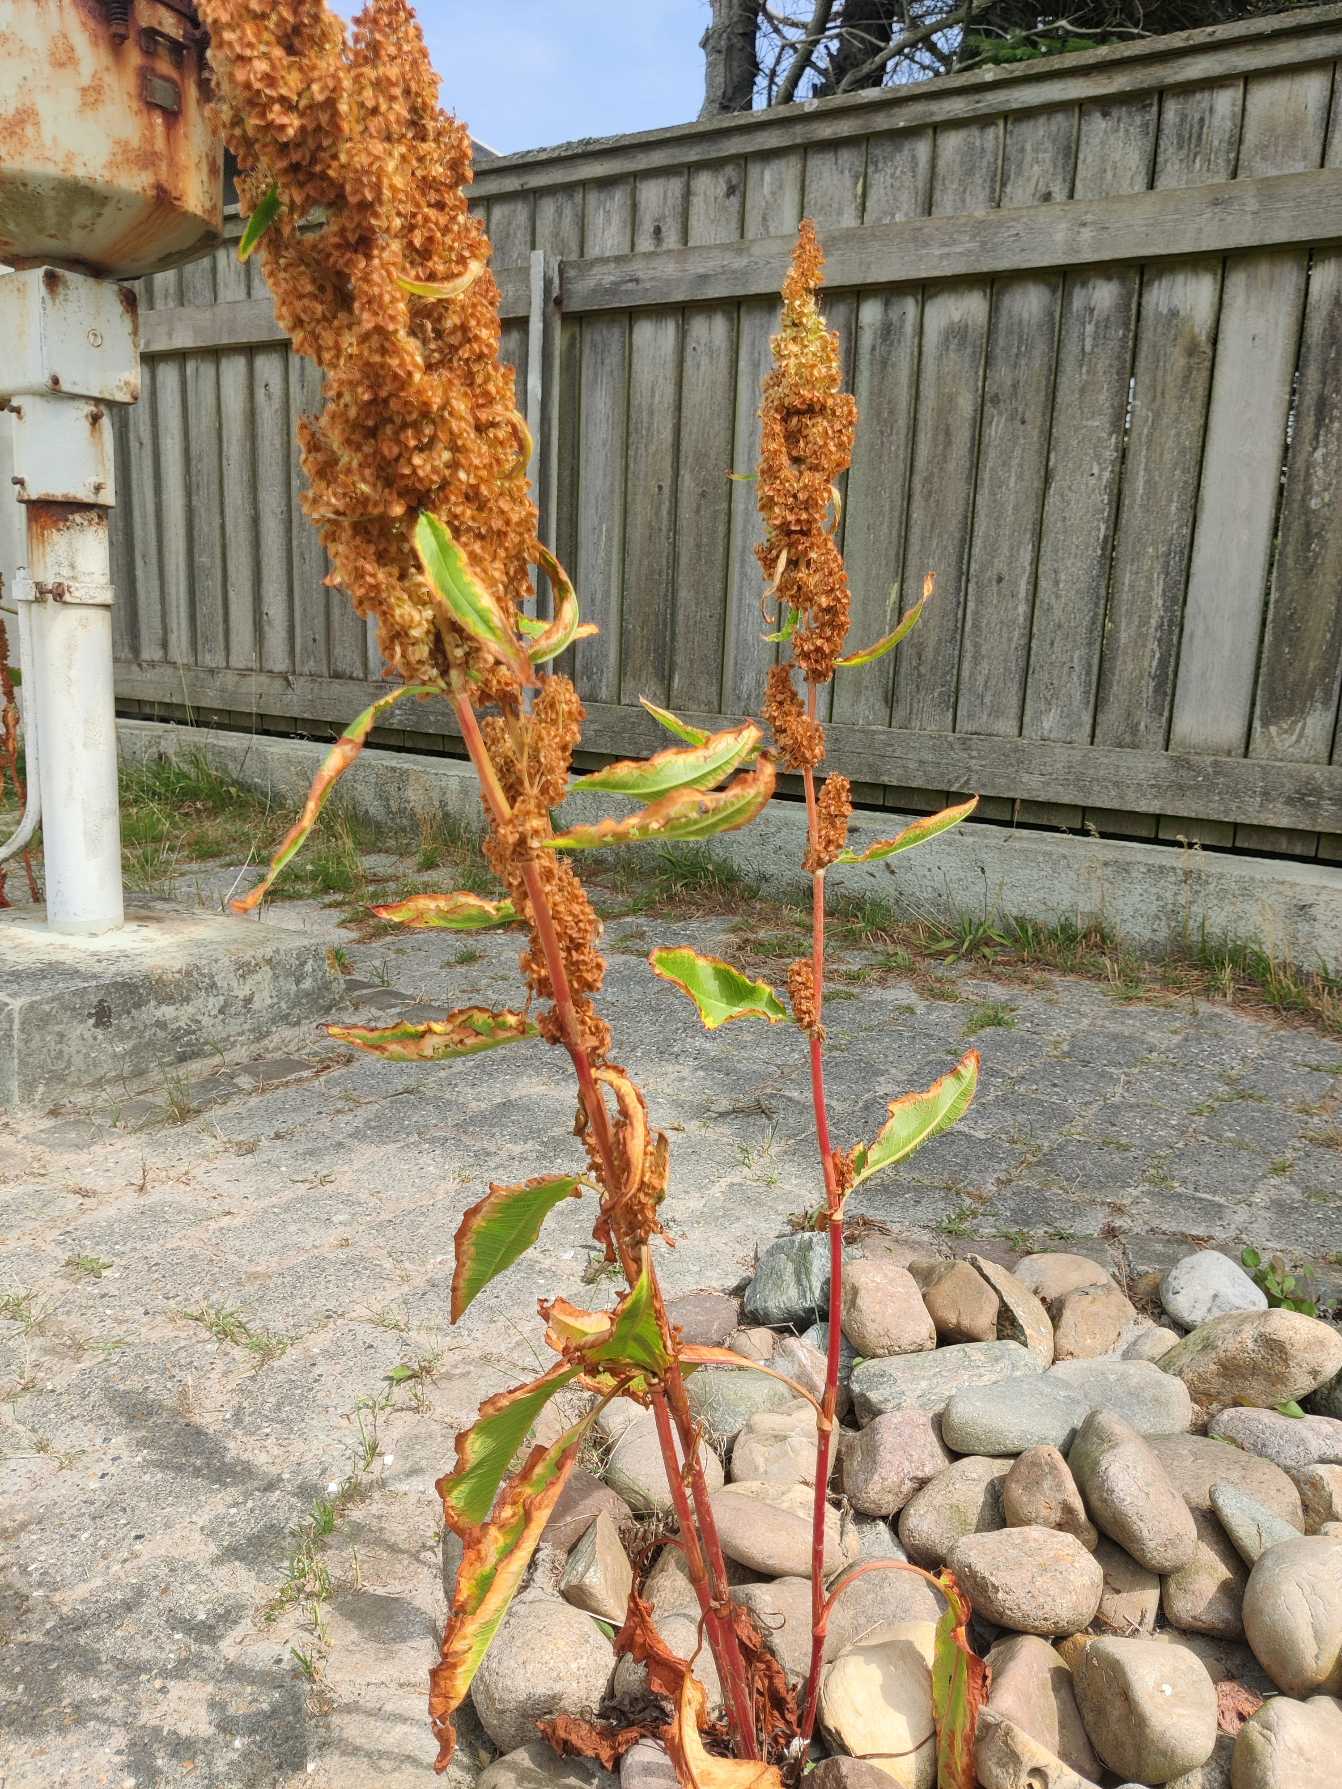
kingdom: Plantae
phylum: Tracheophyta
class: Magnoliopsida
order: Caryophyllales
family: Polygonaceae
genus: Rumex
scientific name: Rumex longifolius
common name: By-skræppe
